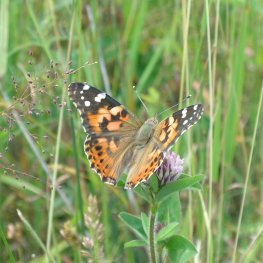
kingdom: Animalia
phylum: Arthropoda
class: Insecta
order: Lepidoptera
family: Nymphalidae
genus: Vanessa
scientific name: Vanessa cardui
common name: Painted Lady
